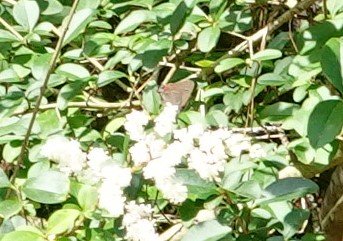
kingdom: Animalia
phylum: Arthropoda
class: Insecta
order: Lepidoptera
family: Lycaenidae
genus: Fixsenia
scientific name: Fixsenia favonius
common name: Oak Hairstreak
